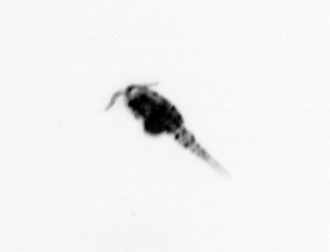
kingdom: Animalia
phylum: Arthropoda
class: Copepoda
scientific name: Copepoda
